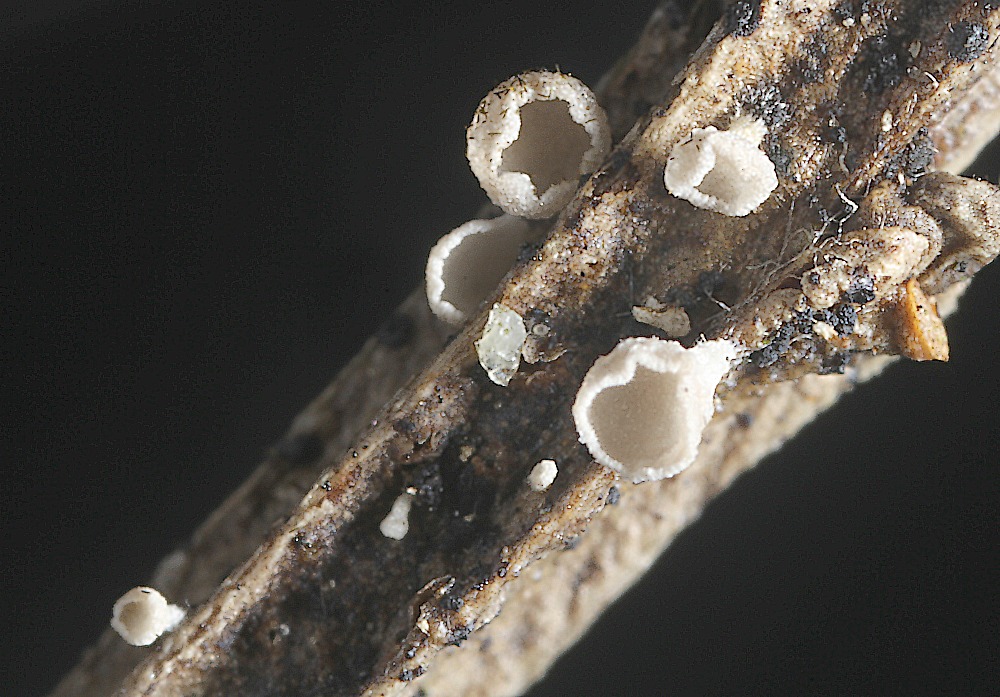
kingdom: Fungi
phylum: Basidiomycota
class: Agaricomycetes
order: Agaricales
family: Marasmiaceae
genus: Calyptella
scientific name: Calyptella gibbosa
